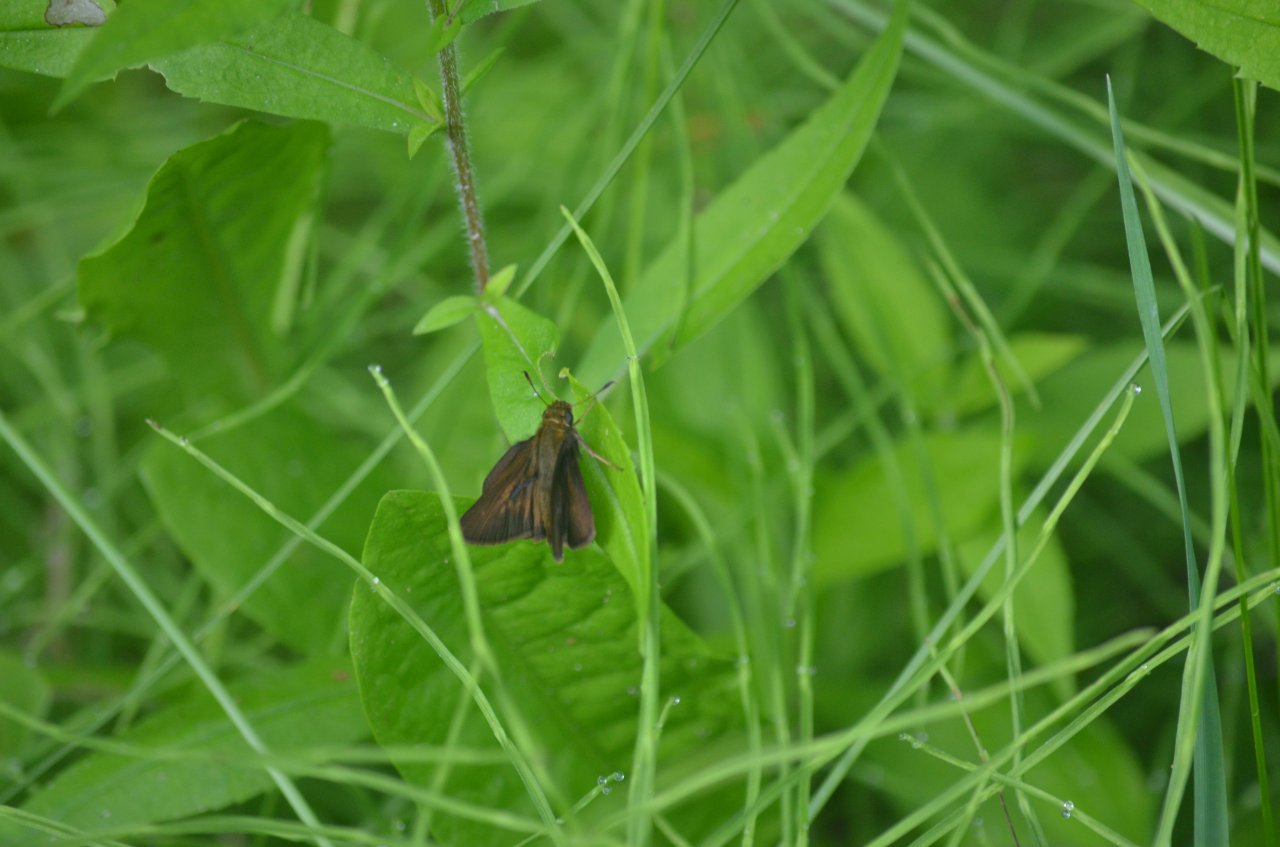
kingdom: Animalia
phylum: Arthropoda
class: Insecta
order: Lepidoptera
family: Hesperiidae
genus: Euphyes
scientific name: Euphyes vestris
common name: Dun Skipper
